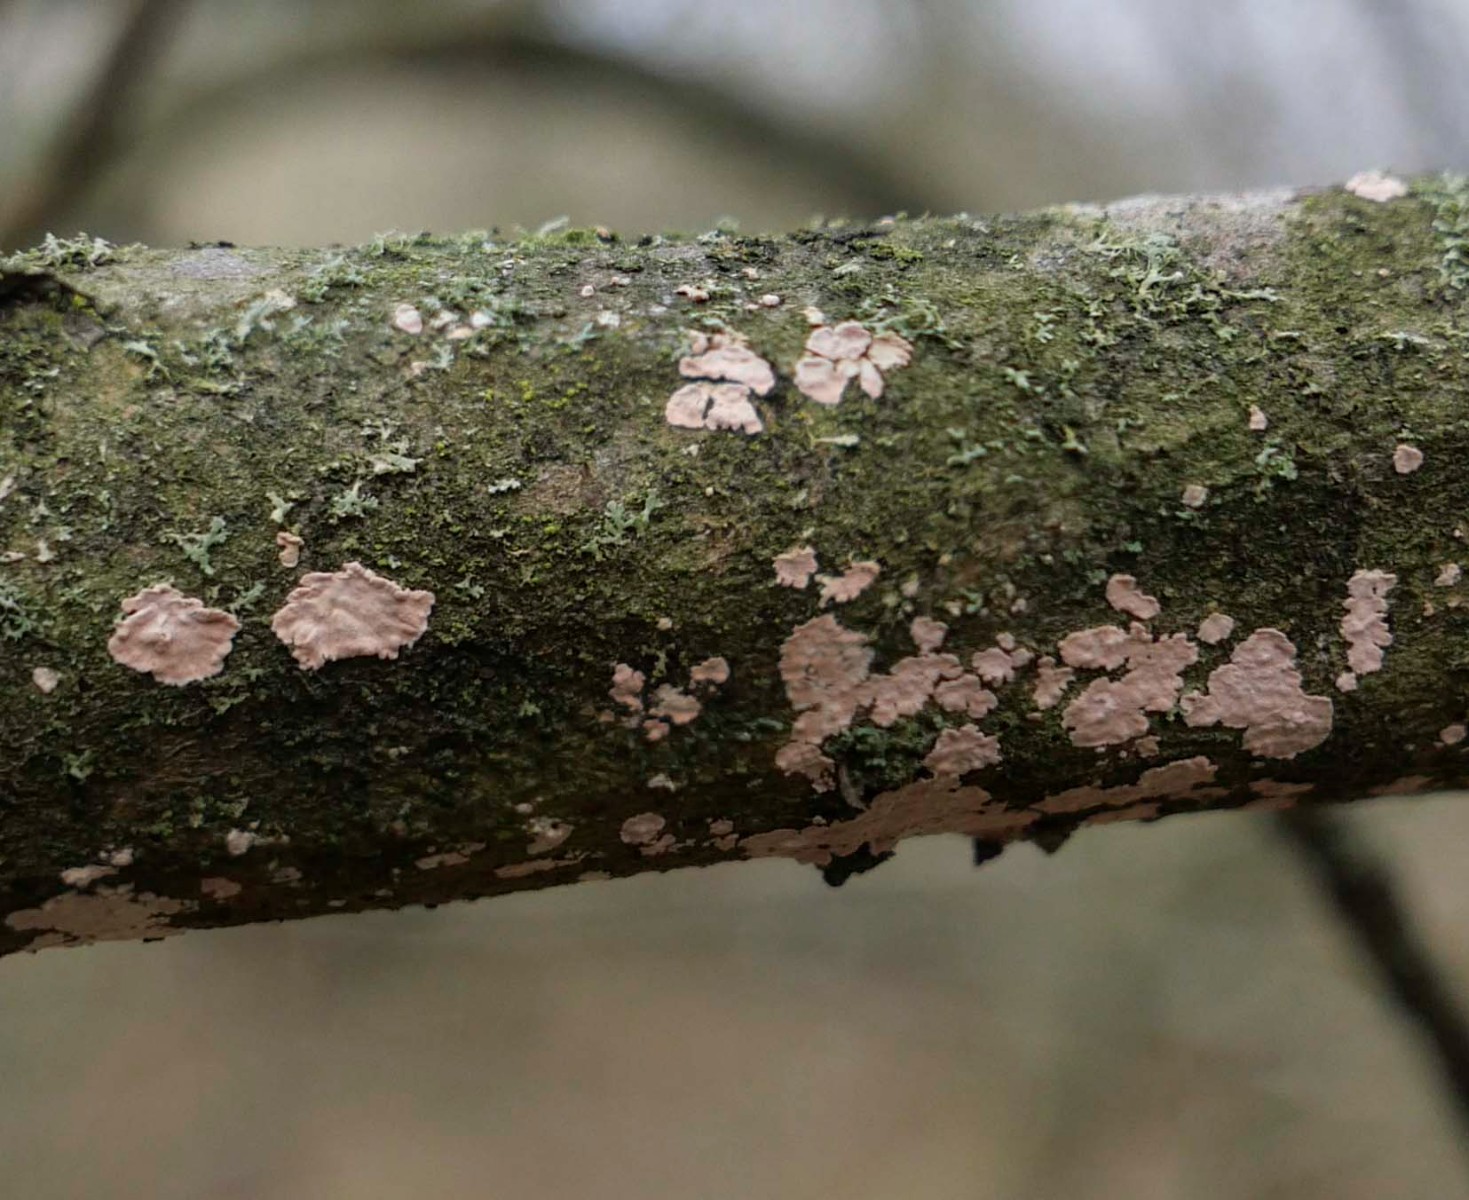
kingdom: Fungi
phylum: Basidiomycota
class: Agaricomycetes
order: Corticiales
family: Corticiaceae
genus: Corticium
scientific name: Corticium roseum
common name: rosa barkskind
